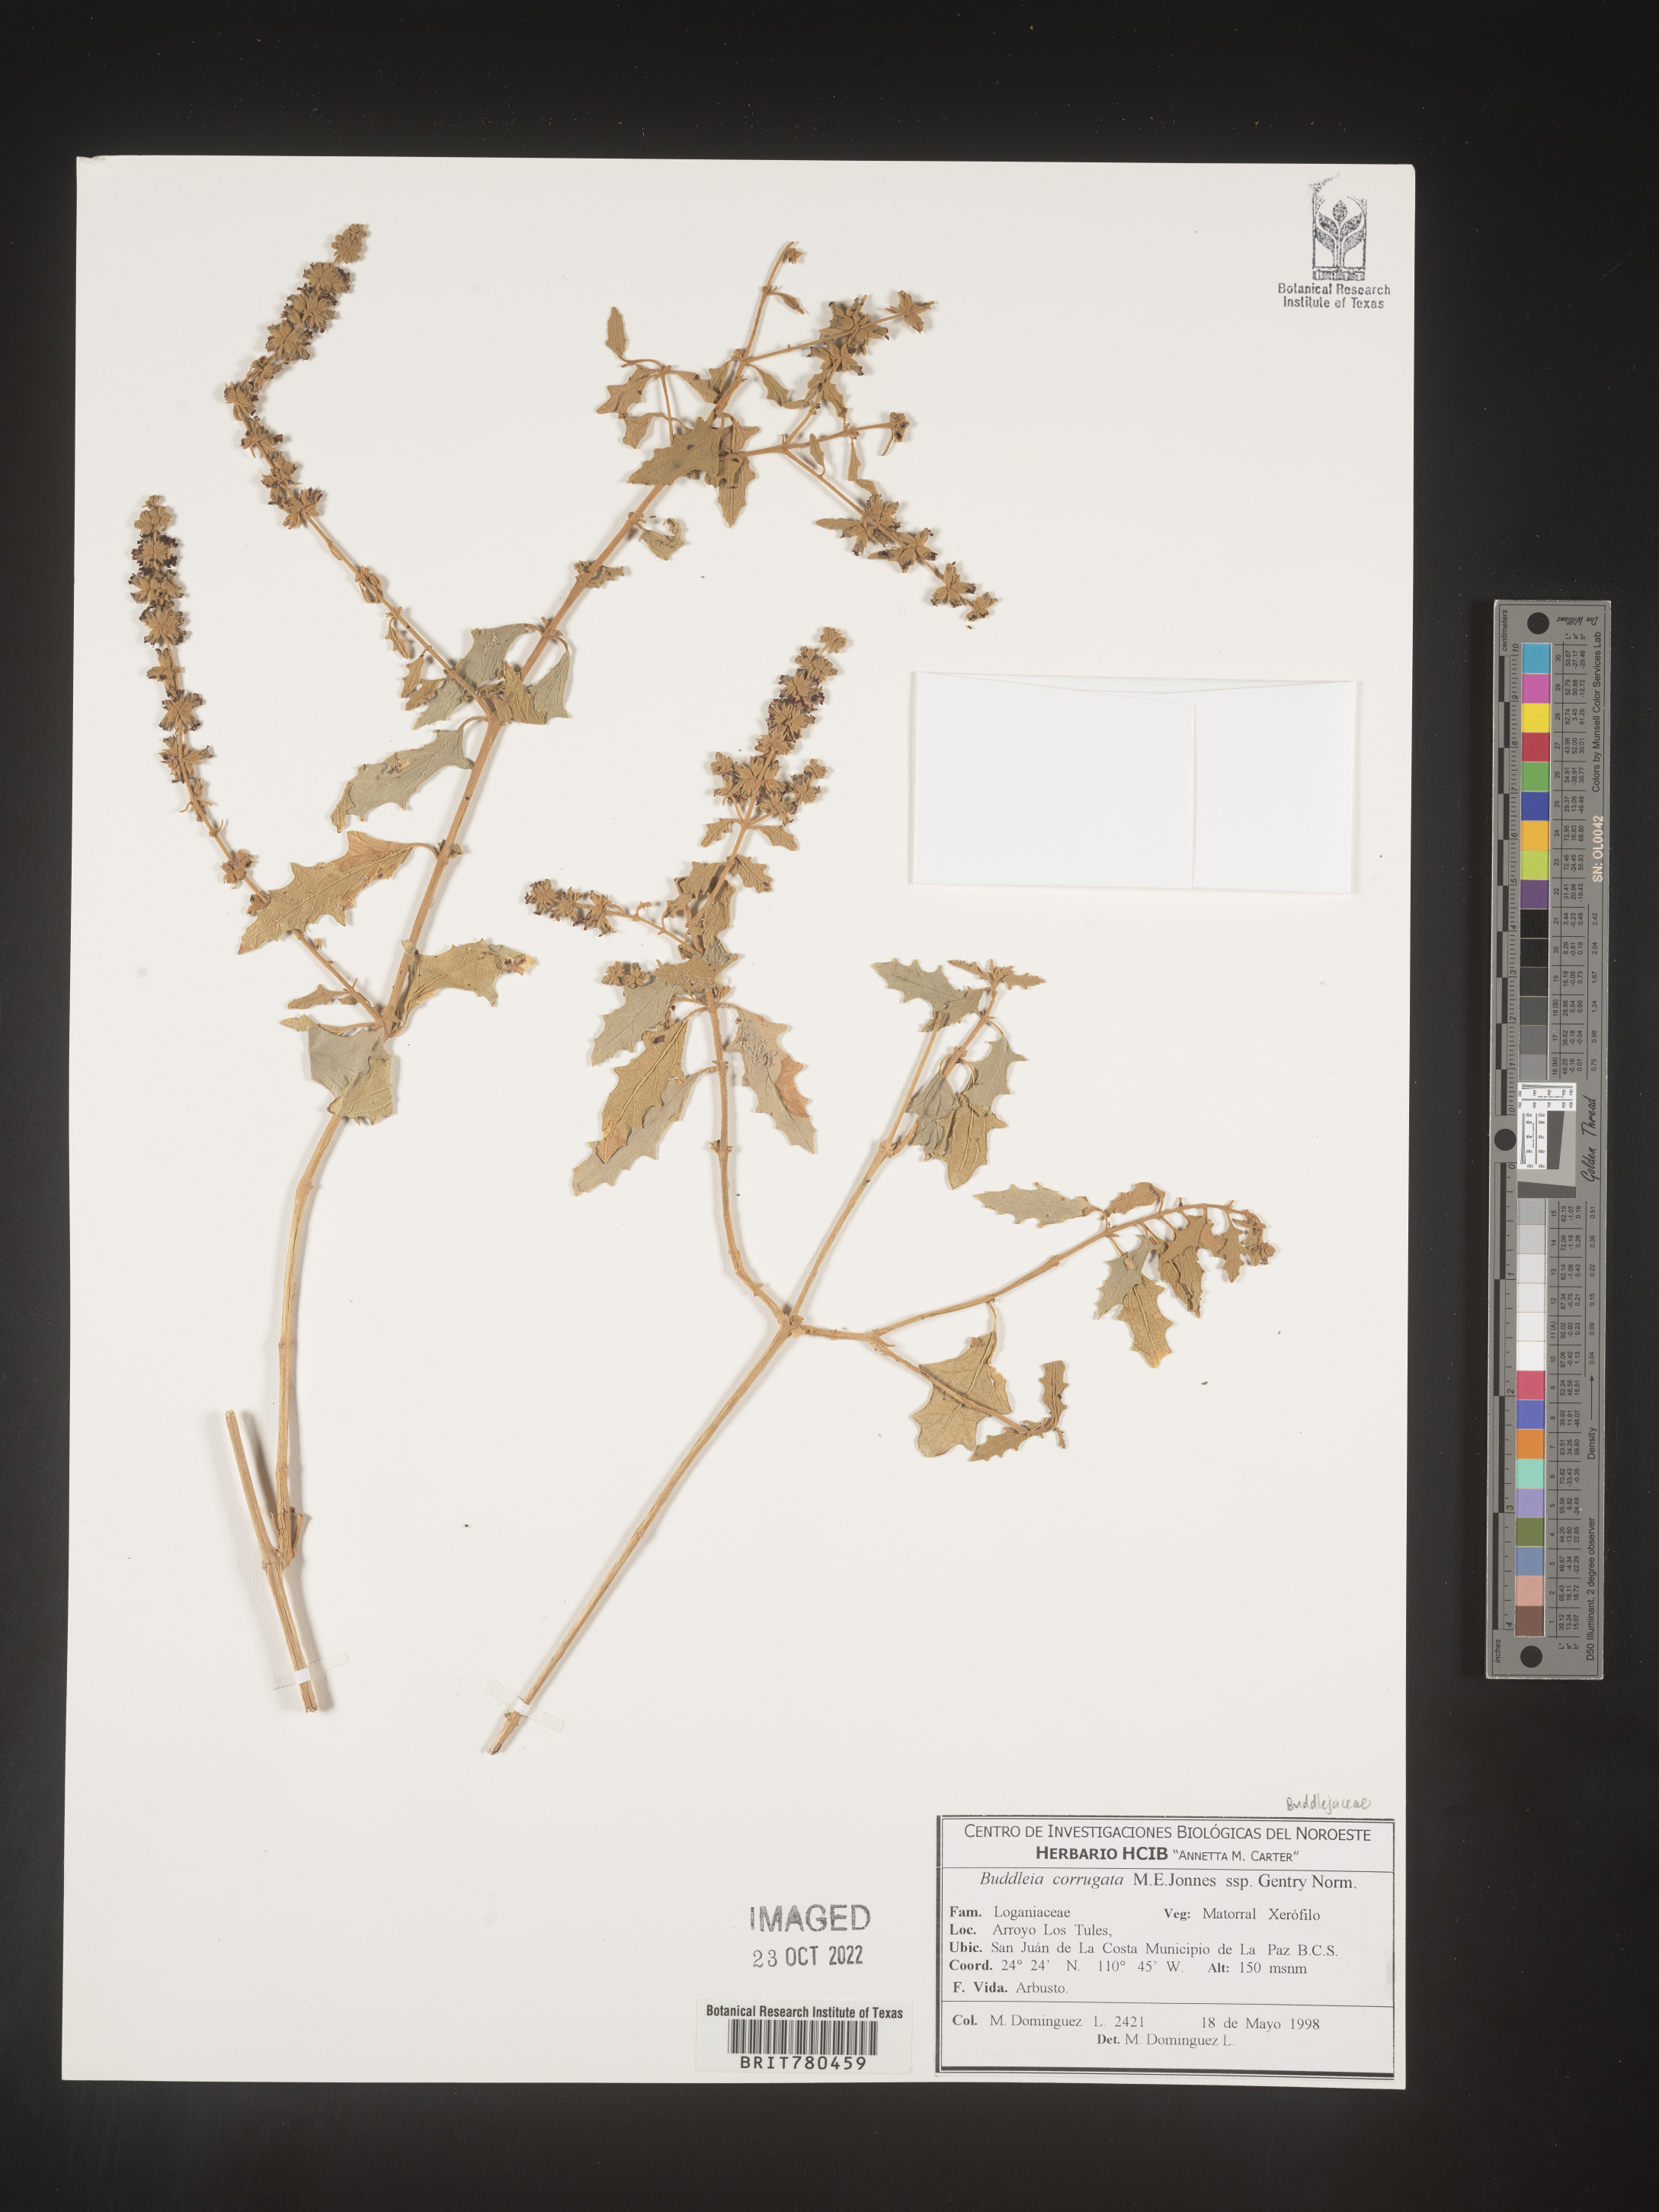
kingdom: Plantae
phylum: Tracheophyta
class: Magnoliopsida
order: Lamiales
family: Scrophulariaceae
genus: Buddleja
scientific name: Buddleja
